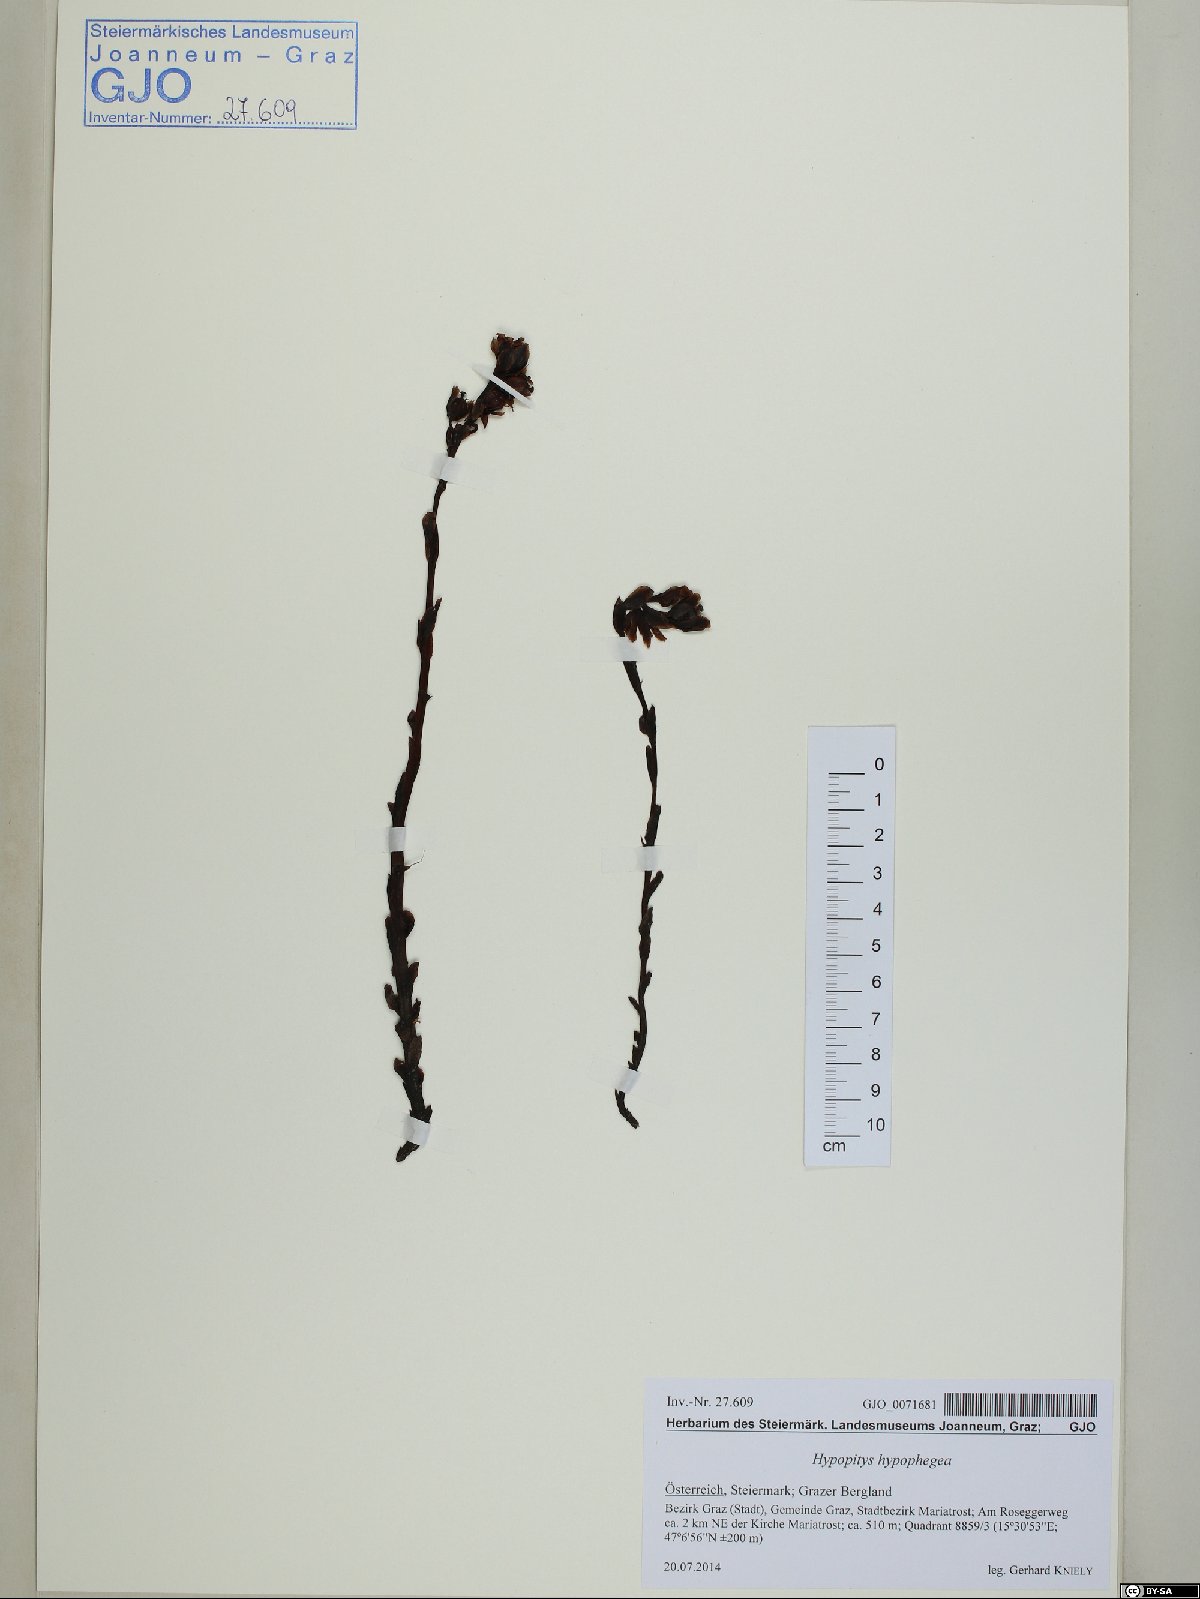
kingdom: Plantae
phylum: Tracheophyta
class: Magnoliopsida
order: Ericales
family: Ericaceae
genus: Hypopitys
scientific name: Hypopitys hypophegea
